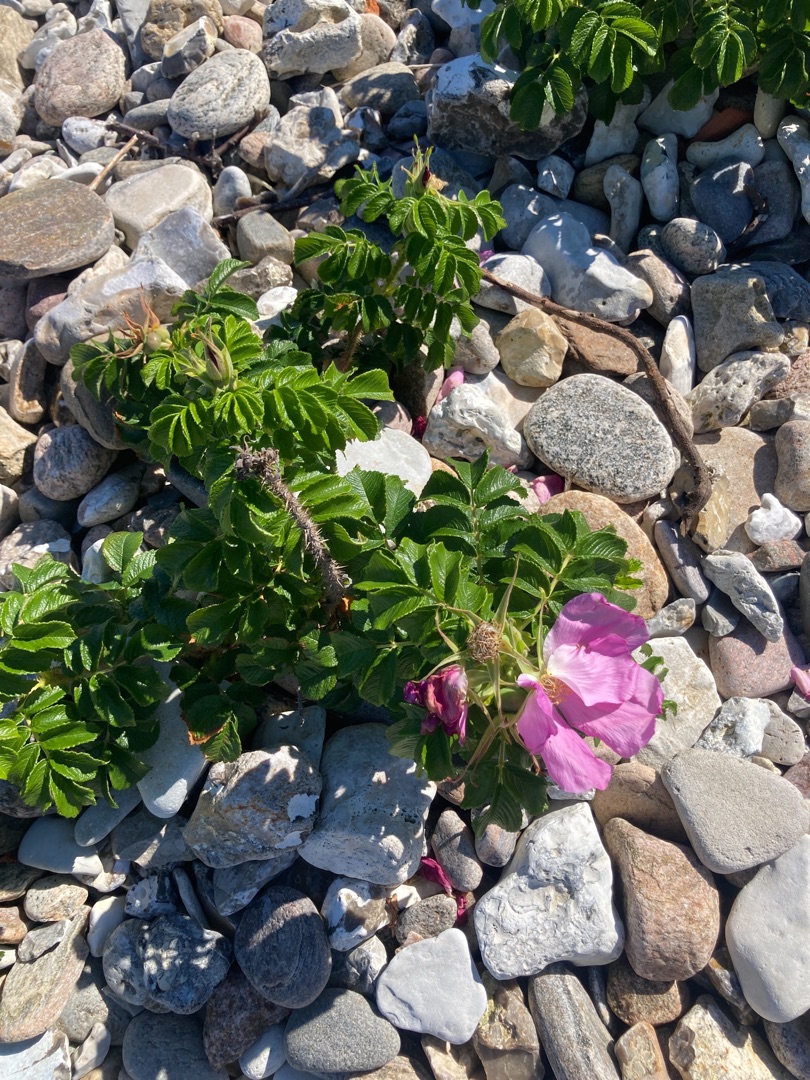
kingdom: Plantae
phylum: Tracheophyta
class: Magnoliopsida
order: Rosales
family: Rosaceae
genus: Rosa
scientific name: Rosa rugosa
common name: Rynket rose
